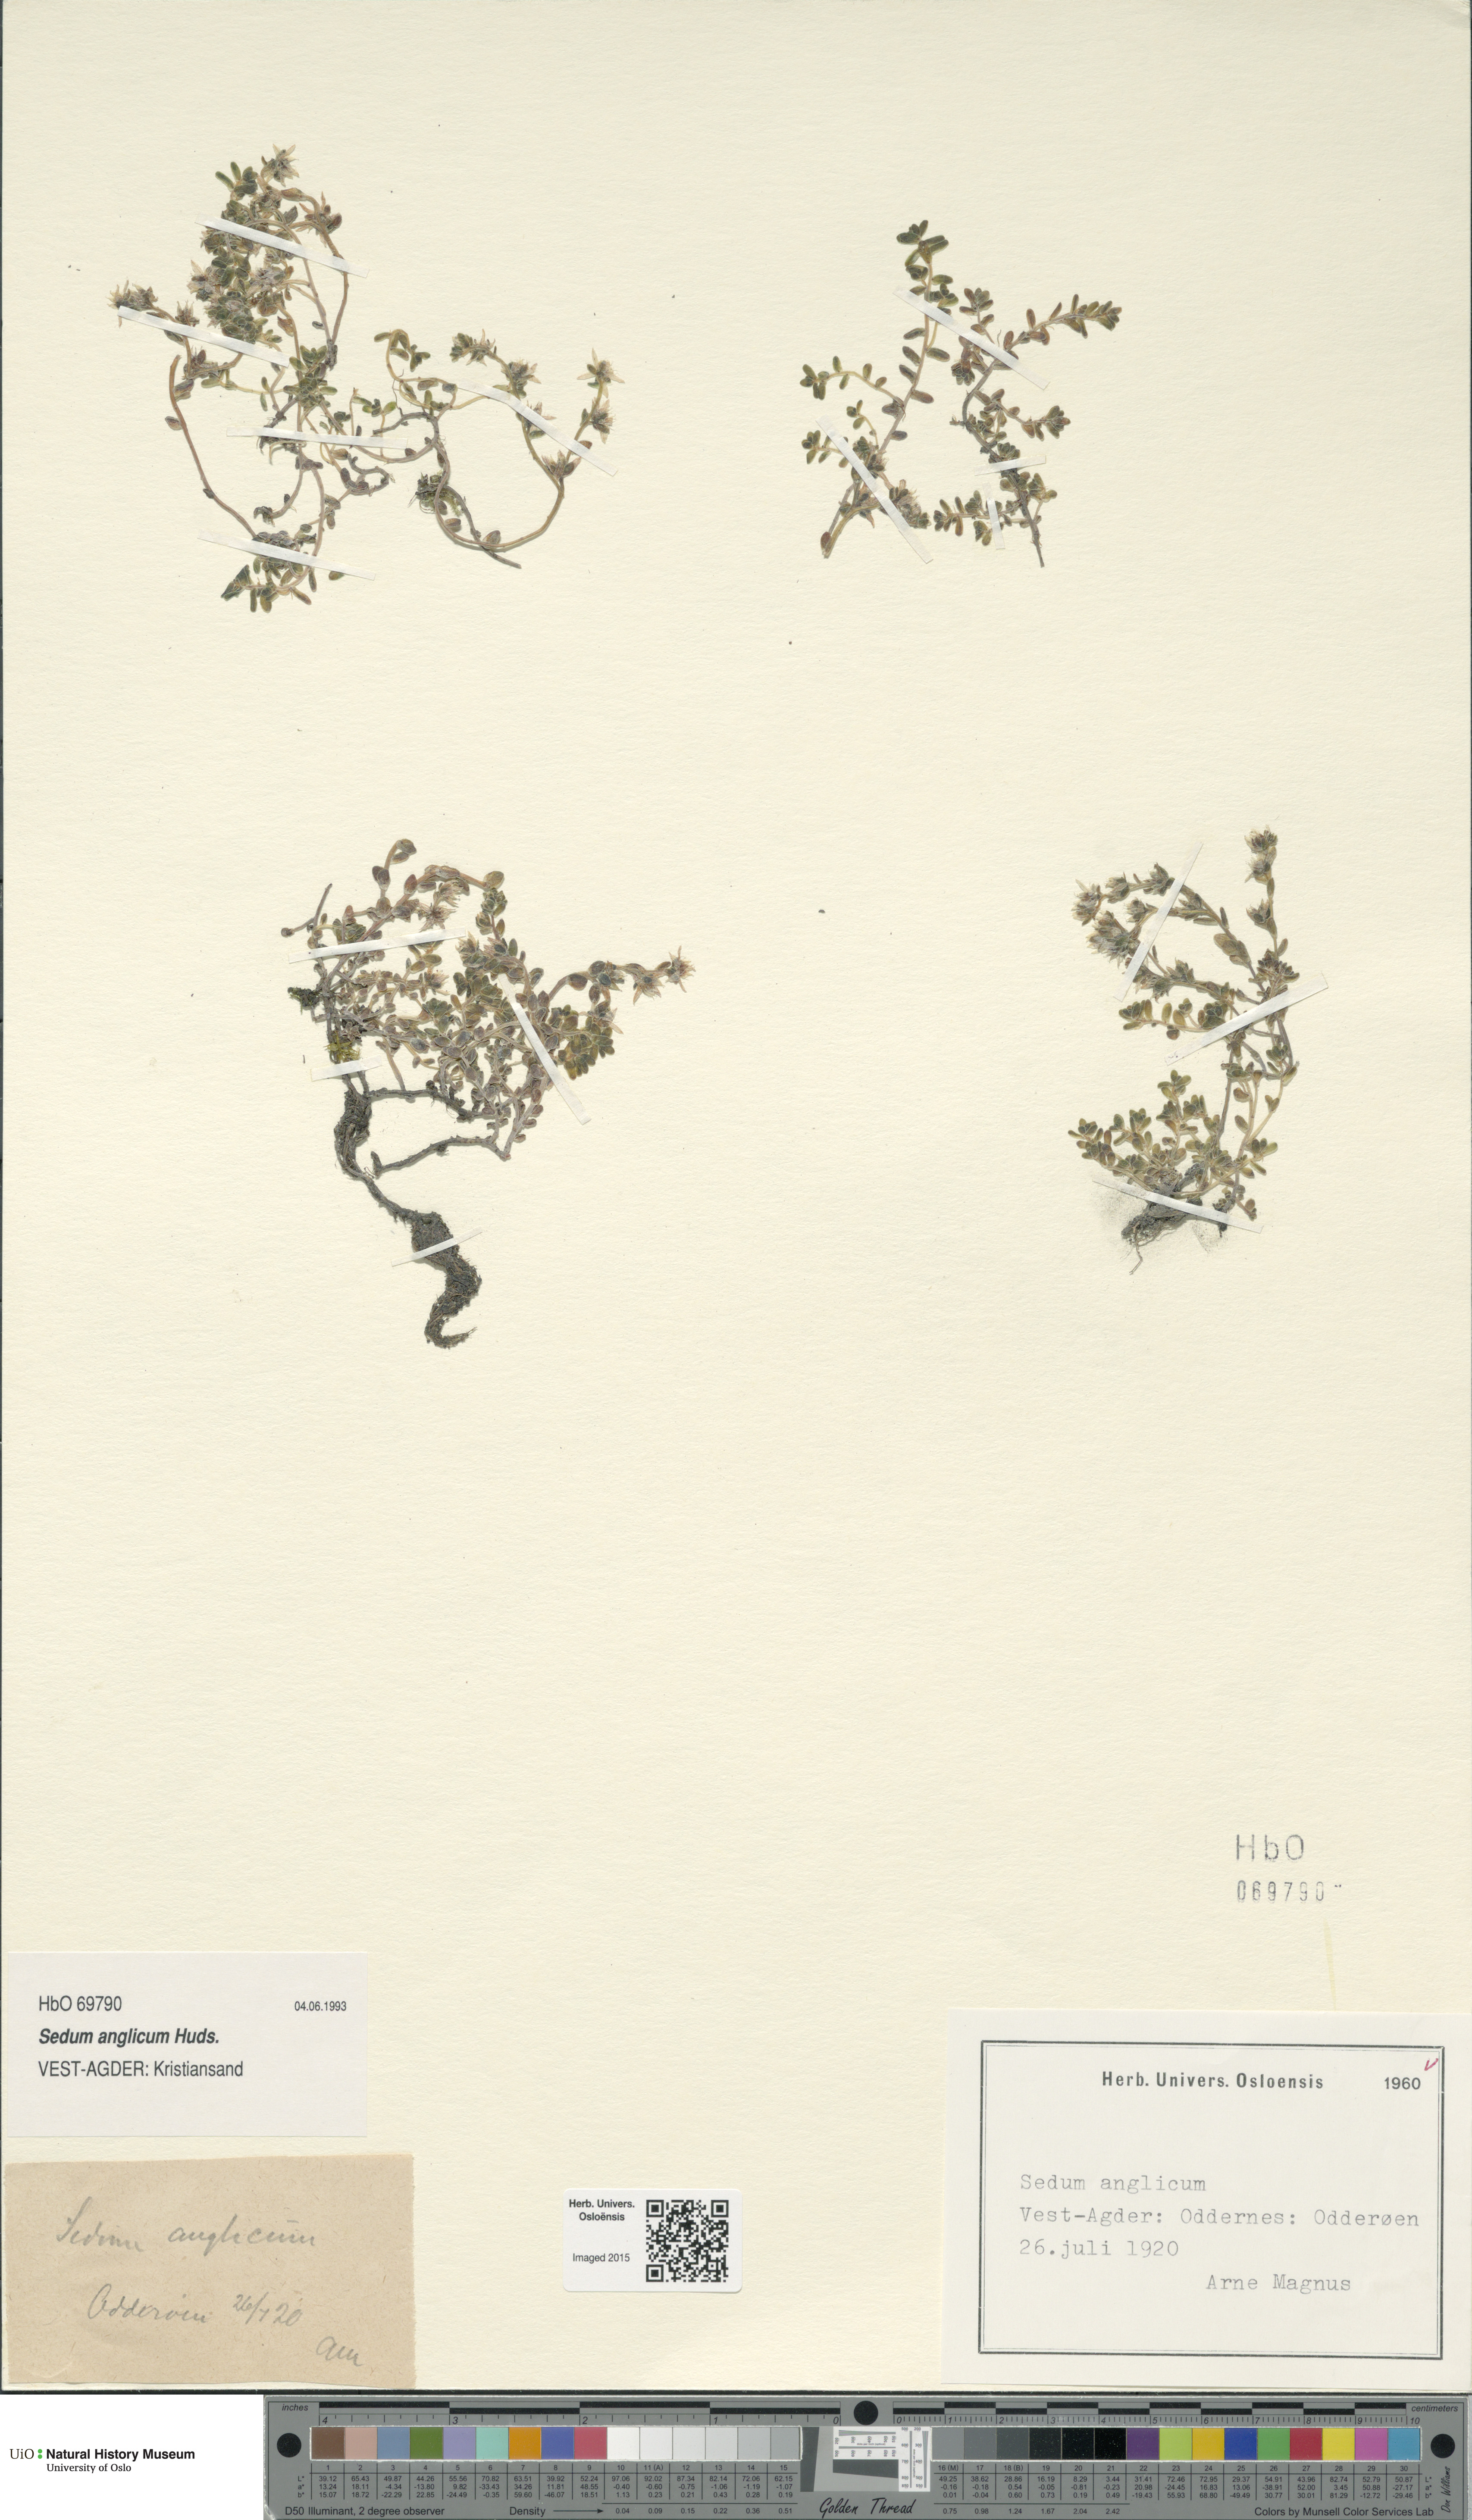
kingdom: Plantae
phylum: Tracheophyta
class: Magnoliopsida
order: Saxifragales
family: Crassulaceae
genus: Sedum
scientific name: Sedum anglicum
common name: English stonecrop
